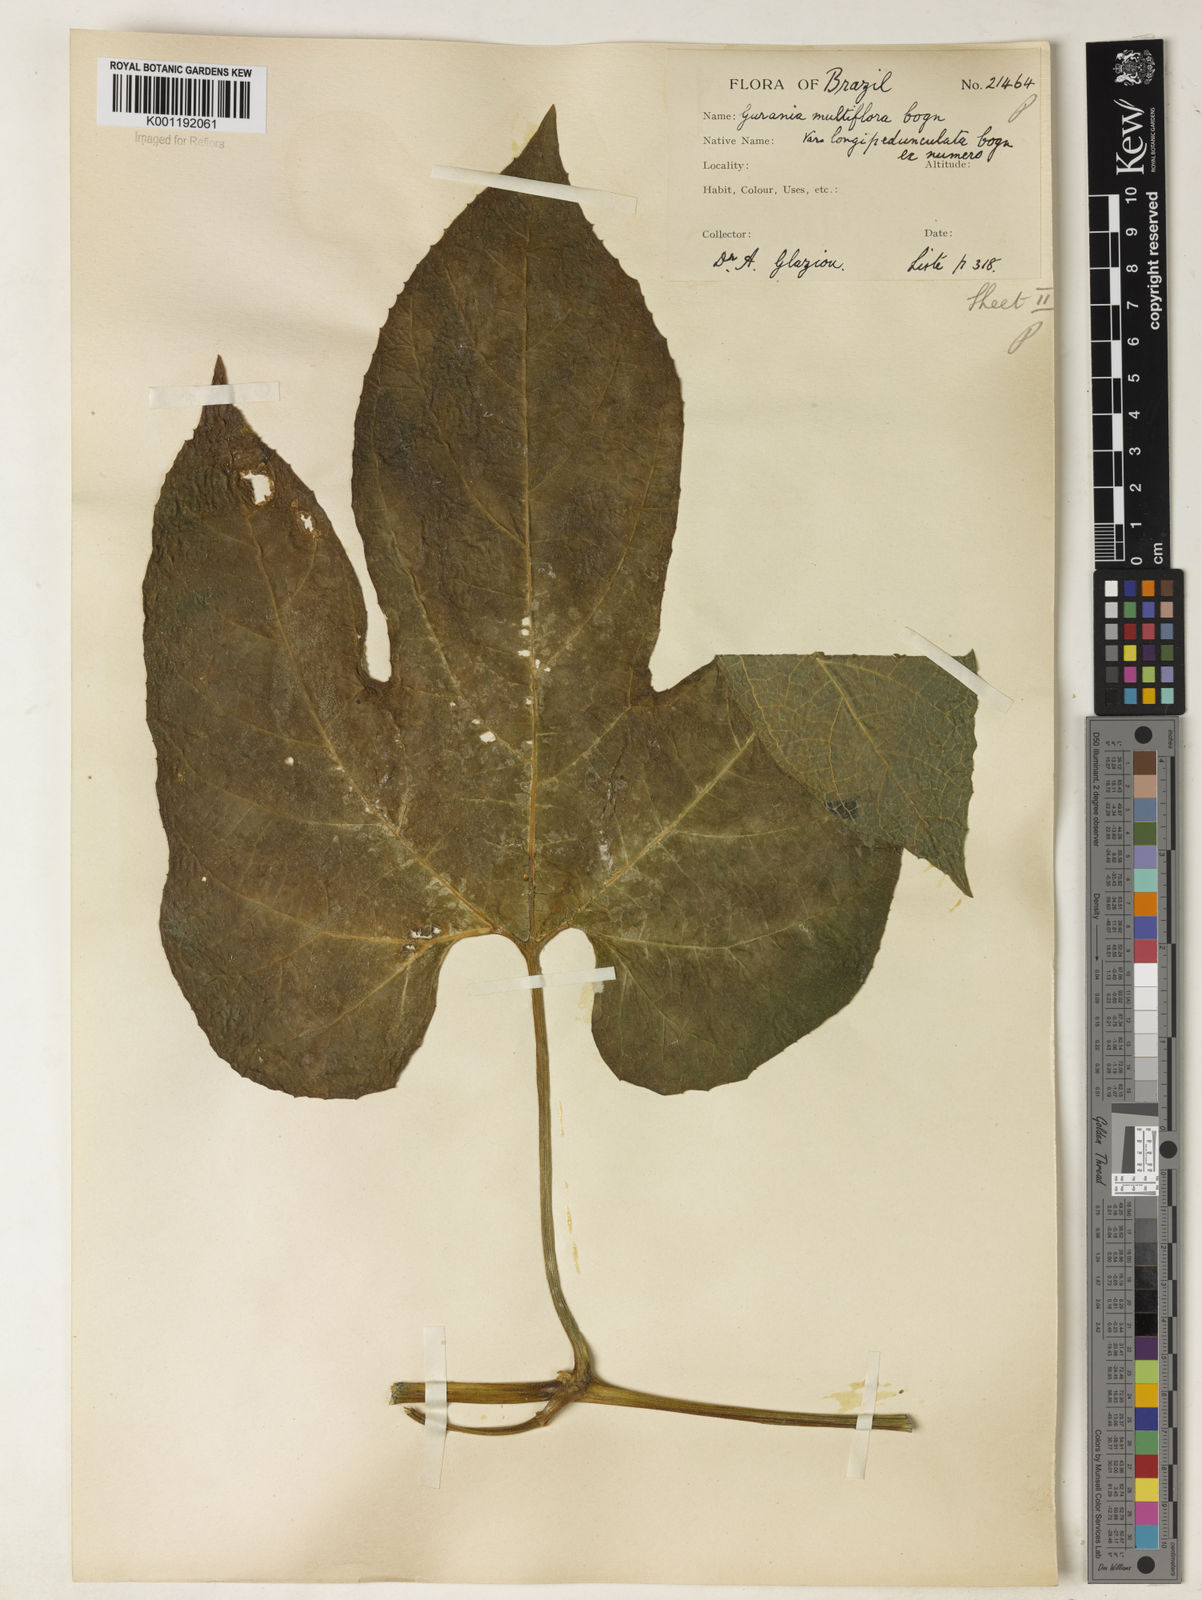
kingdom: Plantae
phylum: Tracheophyta
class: Magnoliopsida
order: Cucurbitales
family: Cucurbitaceae
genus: Gurania
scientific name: Gurania lobata
